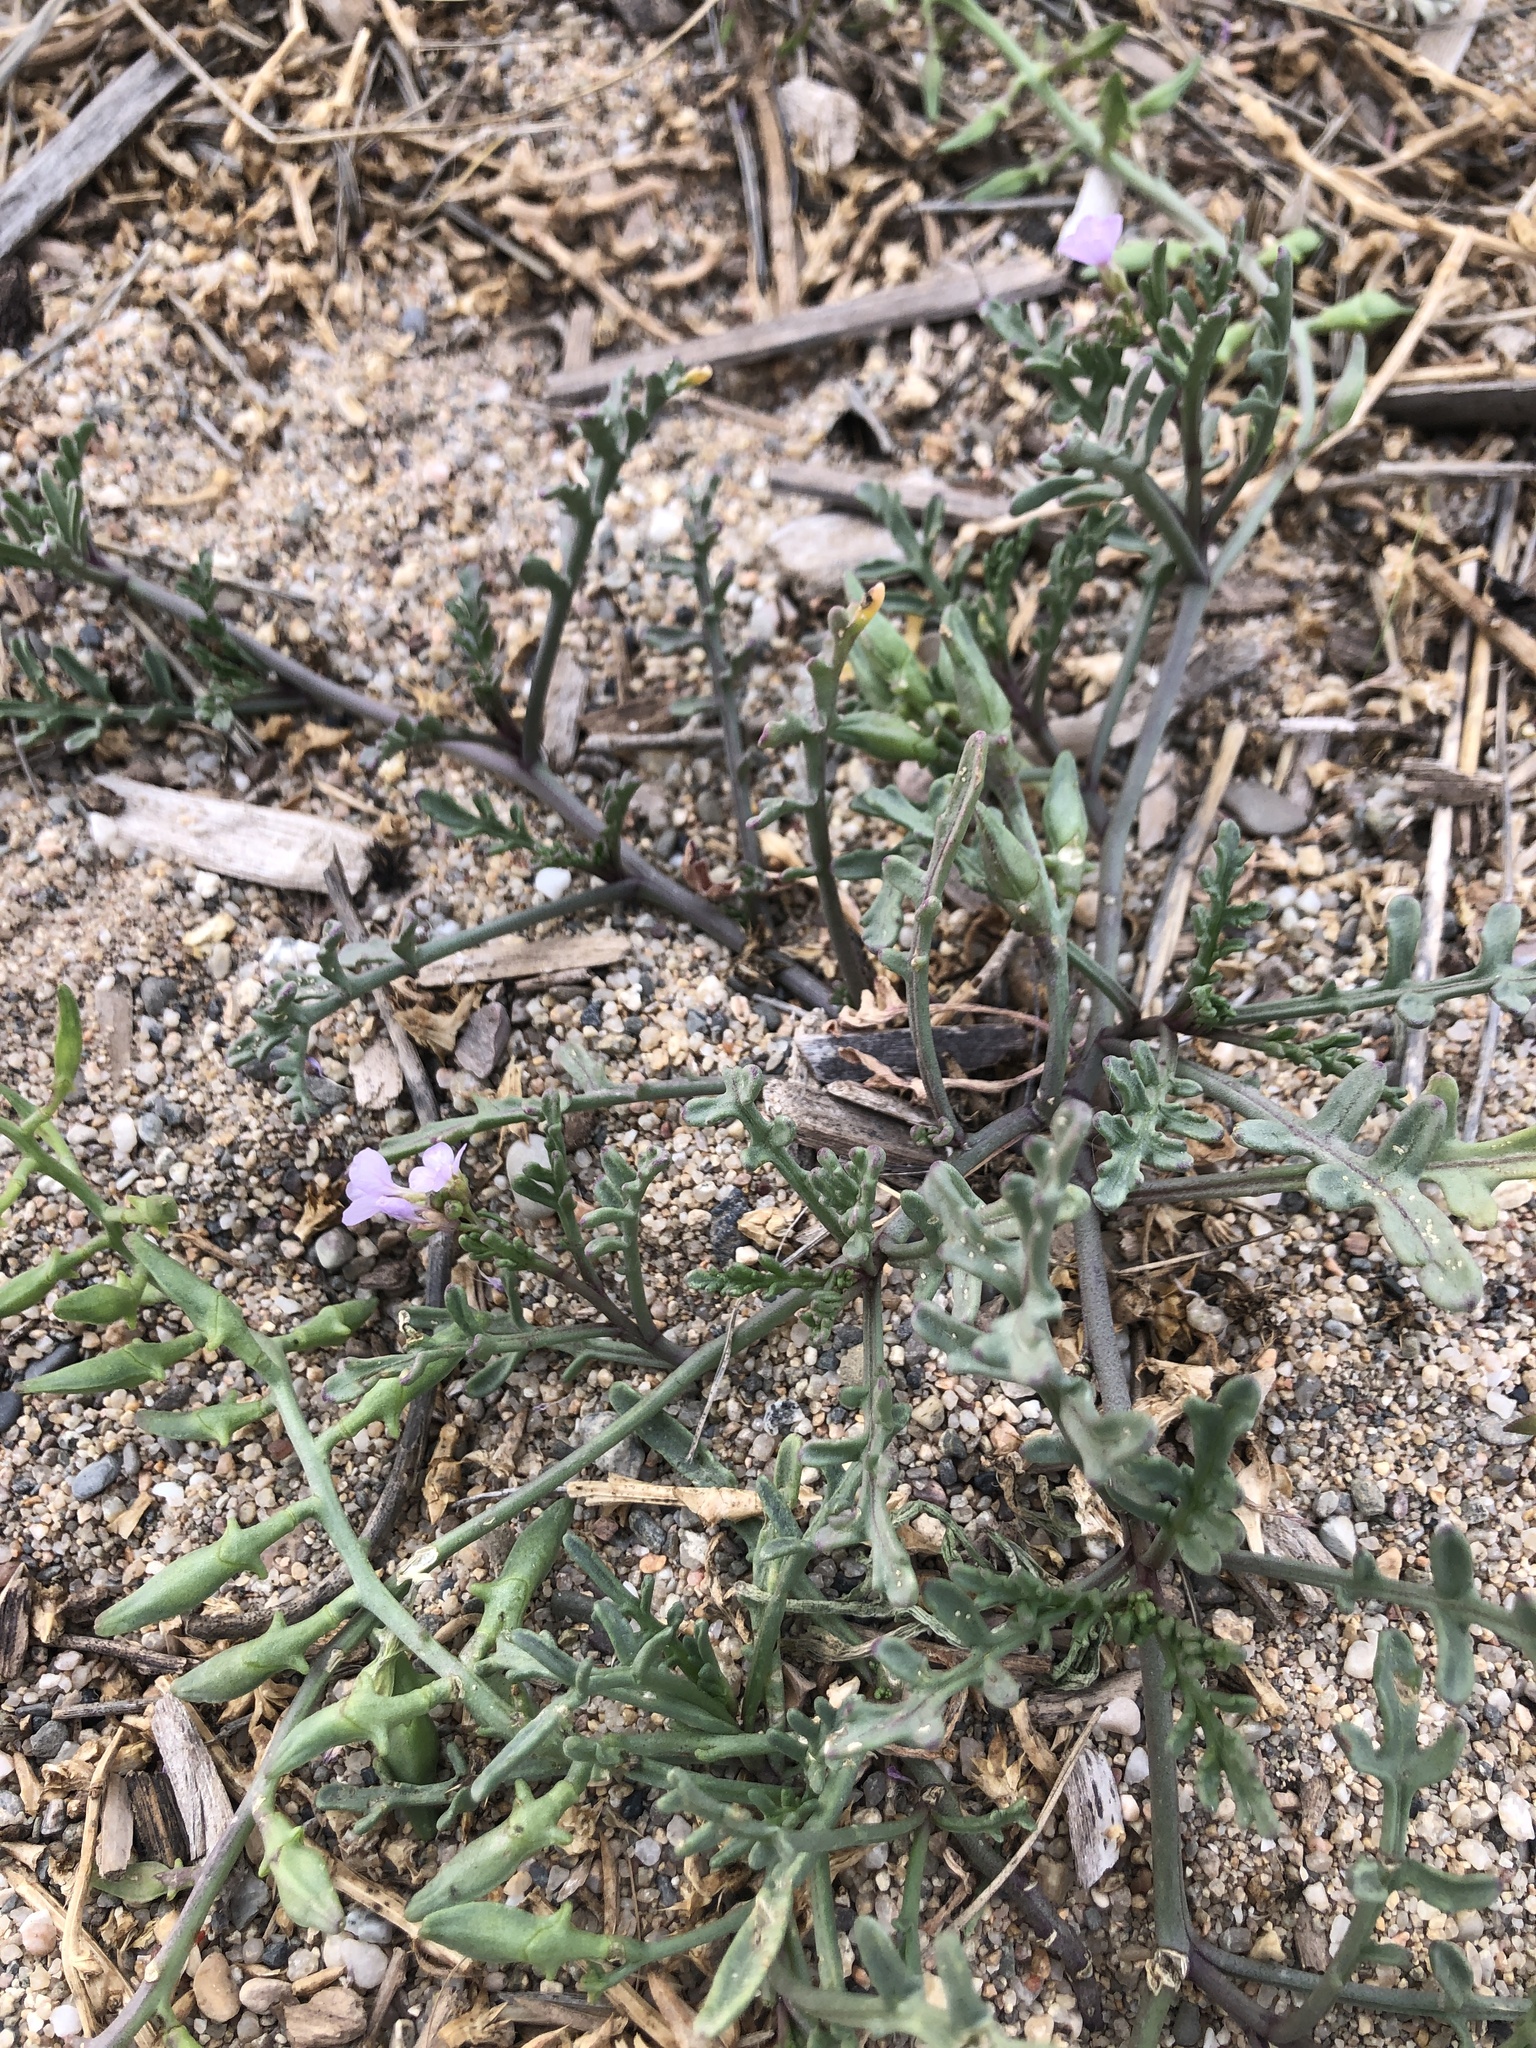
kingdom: Plantae
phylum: Tracheophyta
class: Magnoliopsida
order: Brassicales
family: Brassicaceae
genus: Cakile
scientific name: Cakile maritima
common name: Sea rocket
